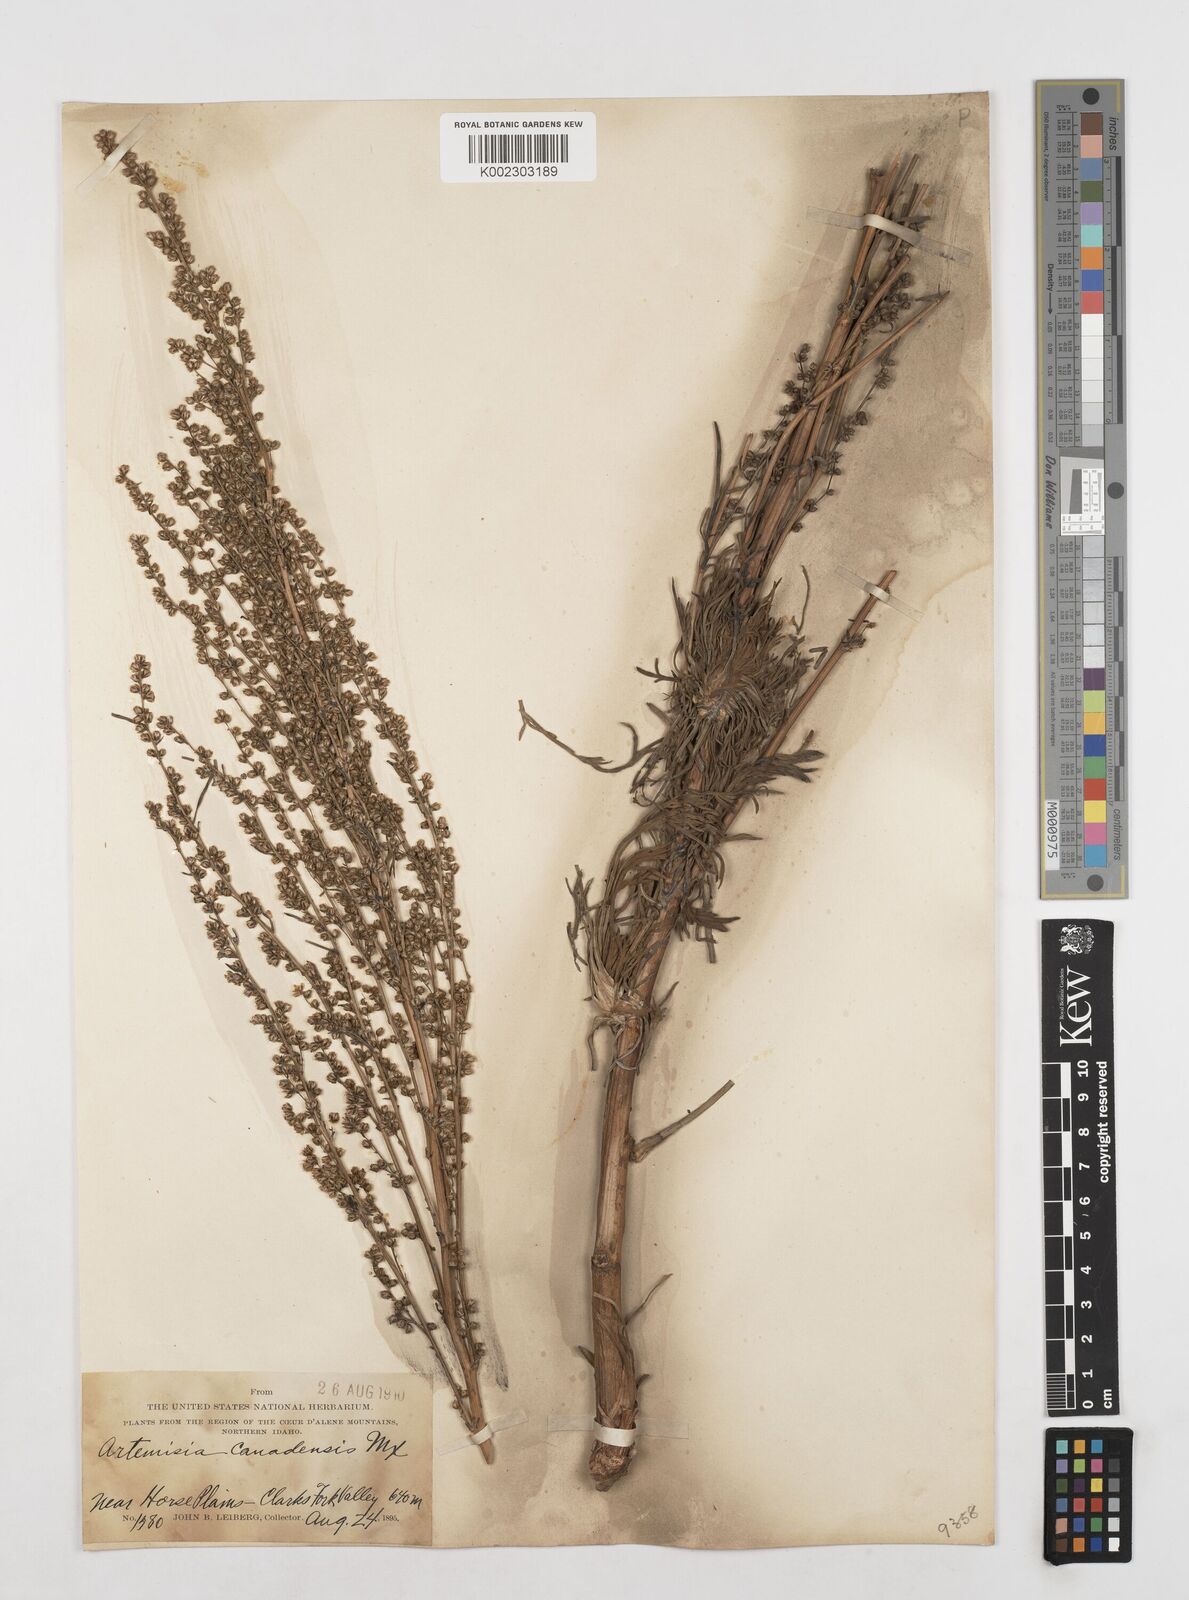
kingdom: Plantae
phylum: Tracheophyta
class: Magnoliopsida
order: Asterales
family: Asteraceae
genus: Artemisia
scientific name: Artemisia campestris
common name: Field wormwood
